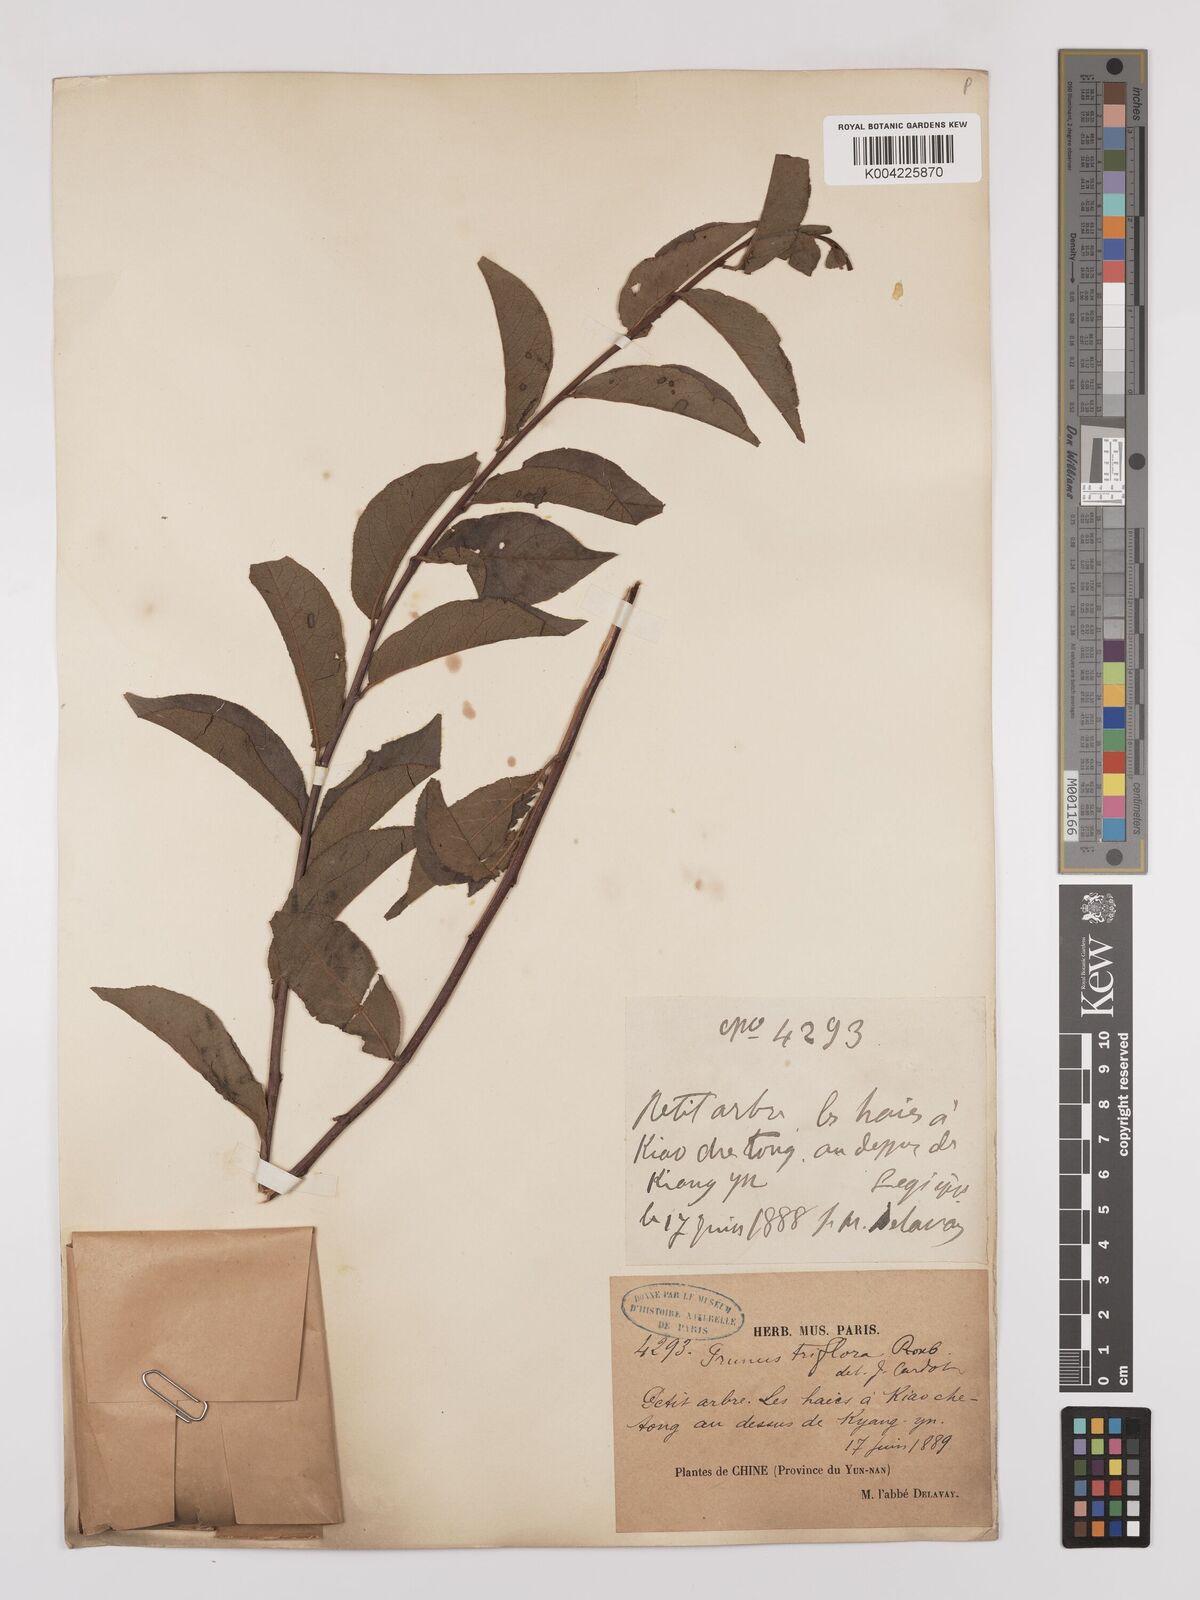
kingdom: Plantae
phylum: Tracheophyta
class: Magnoliopsida
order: Rosales
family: Rosaceae
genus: Prunus
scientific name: Prunus
